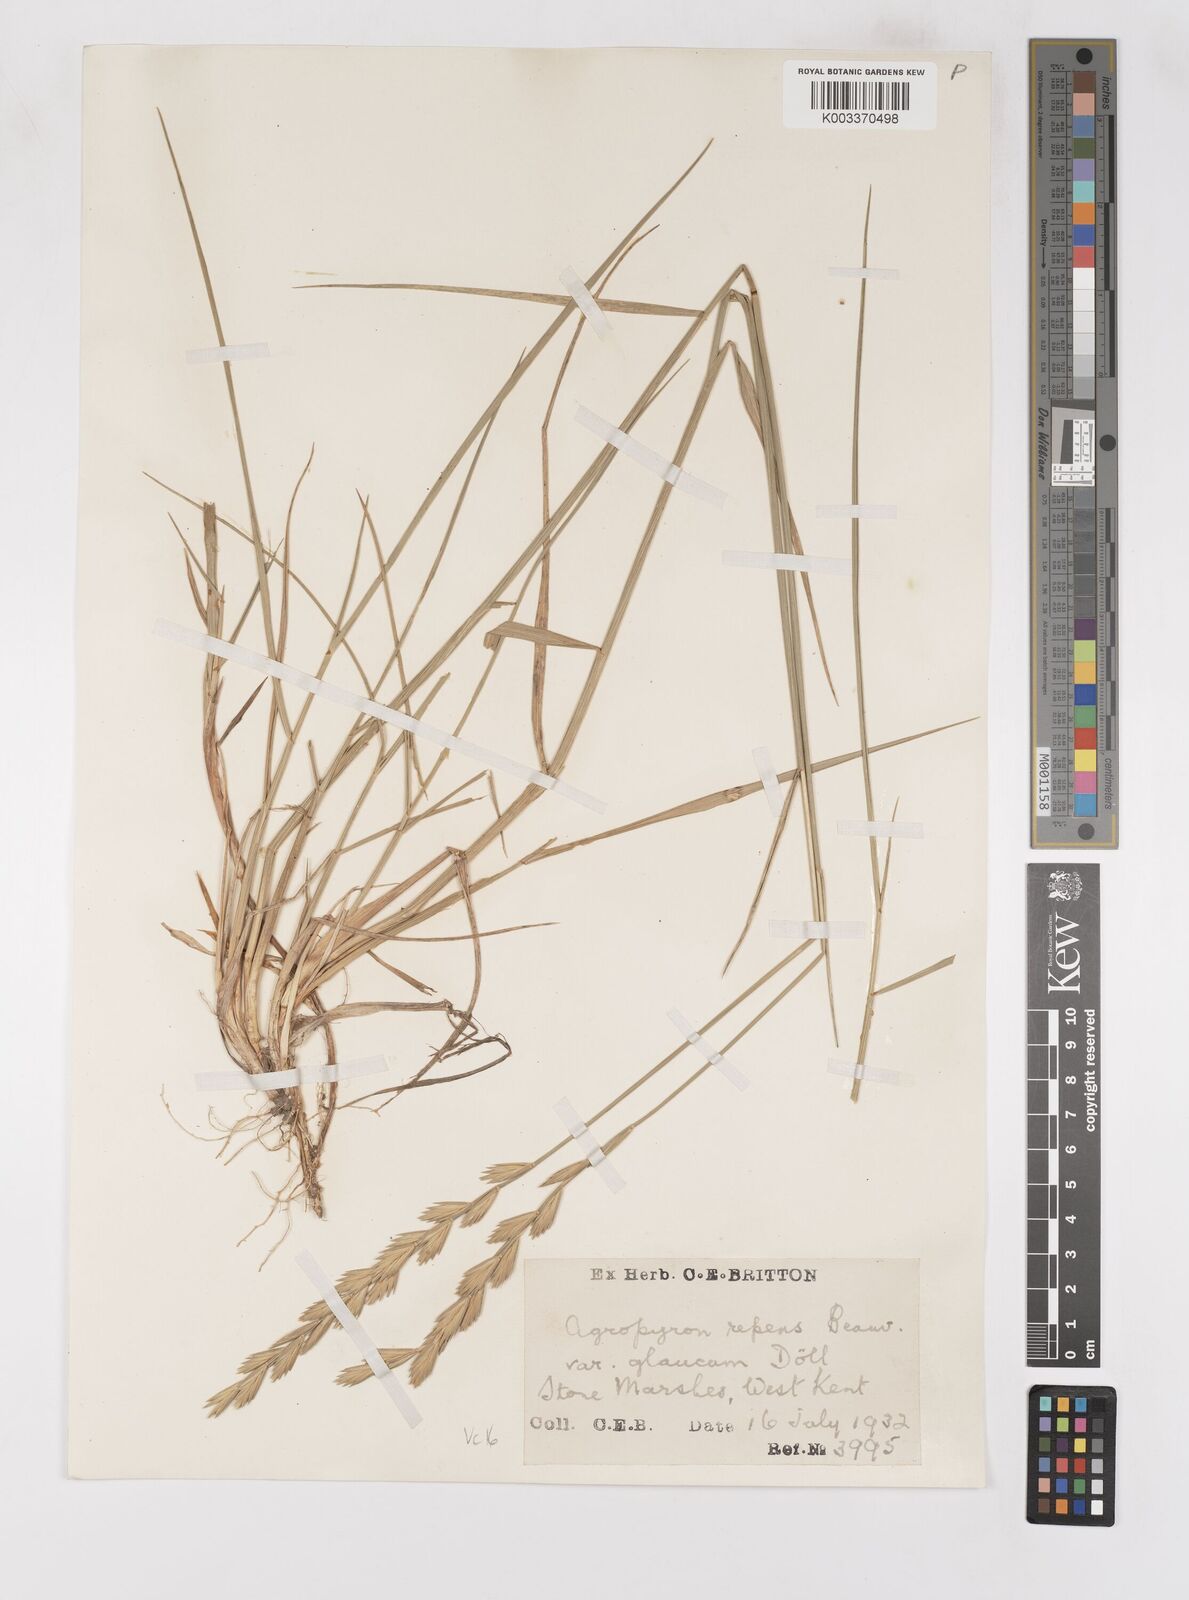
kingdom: Plantae
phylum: Tracheophyta
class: Liliopsida
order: Poales
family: Poaceae
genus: Thinoelymus
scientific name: Thinoelymus obtusiusculus
